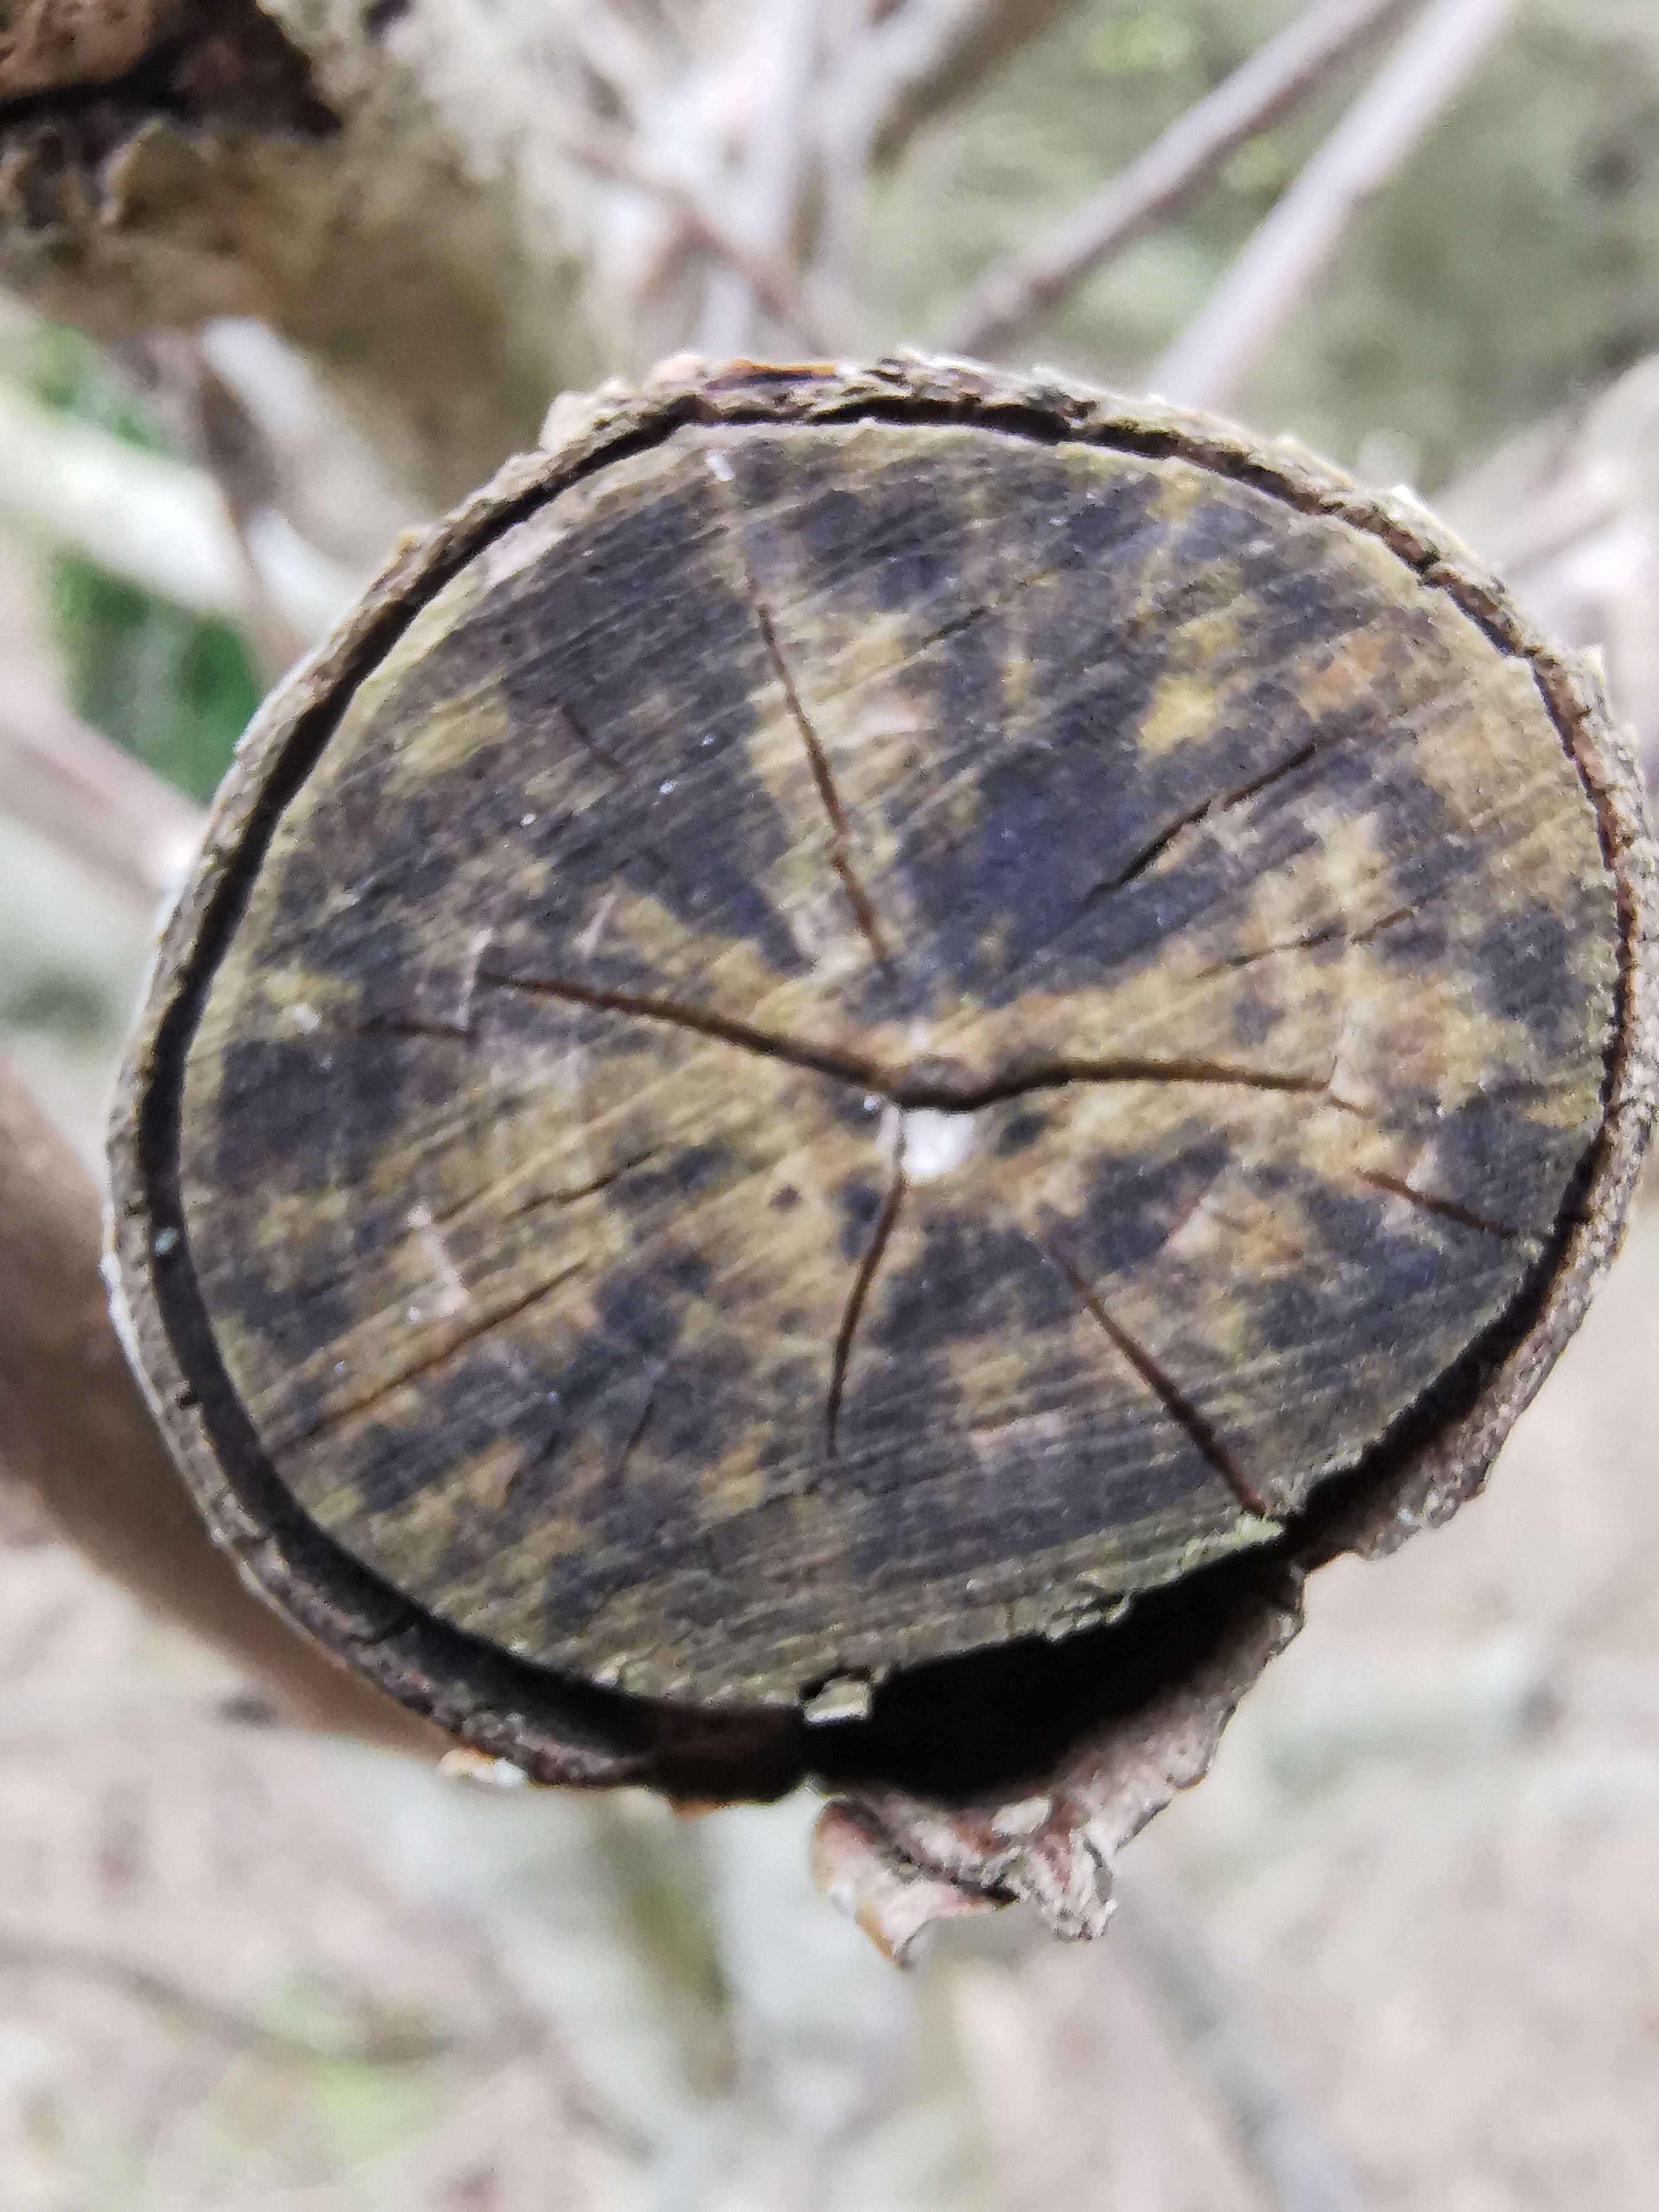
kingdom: Fungi
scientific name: Fungi
